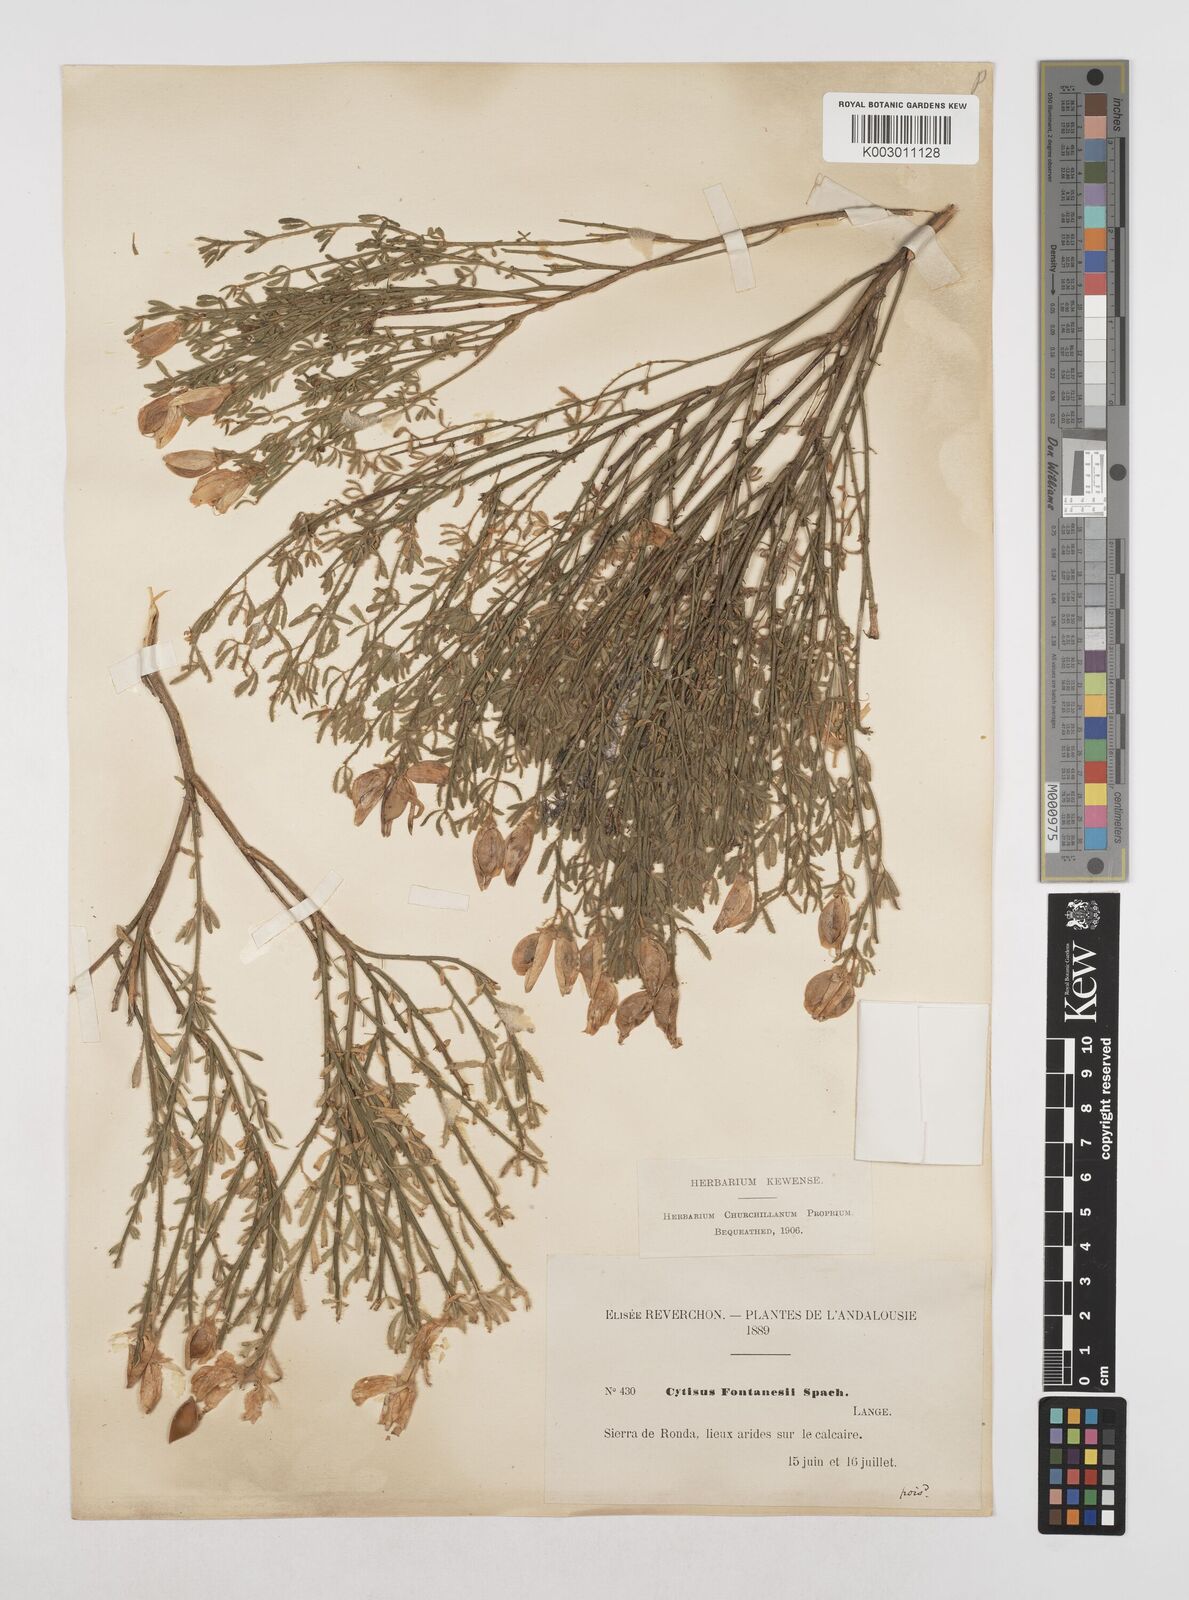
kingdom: Plantae
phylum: Tracheophyta
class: Magnoliopsida
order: Fabales
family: Fabaceae
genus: Cytisus
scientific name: Cytisus fontanesii
